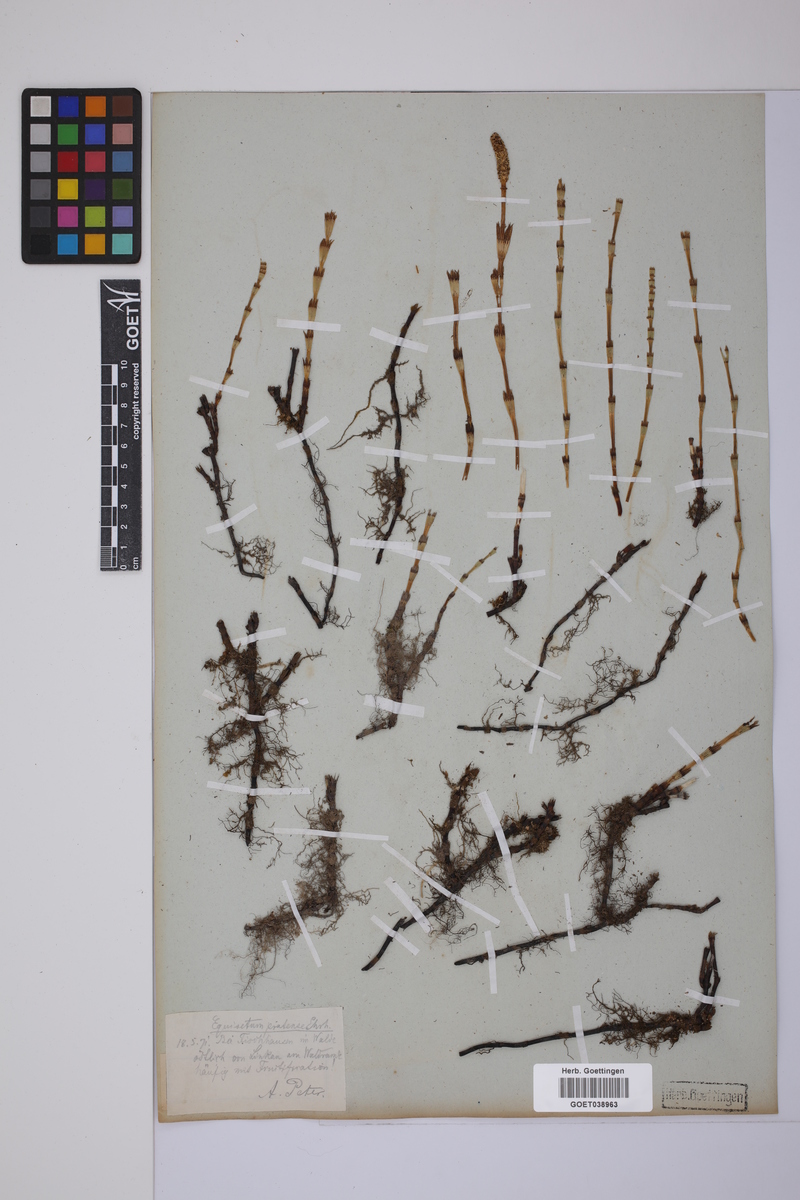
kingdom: Plantae
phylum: Tracheophyta
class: Polypodiopsida
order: Equisetales
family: Equisetaceae
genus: Equisetum
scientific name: Equisetum pratense
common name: Meadow horsetail
